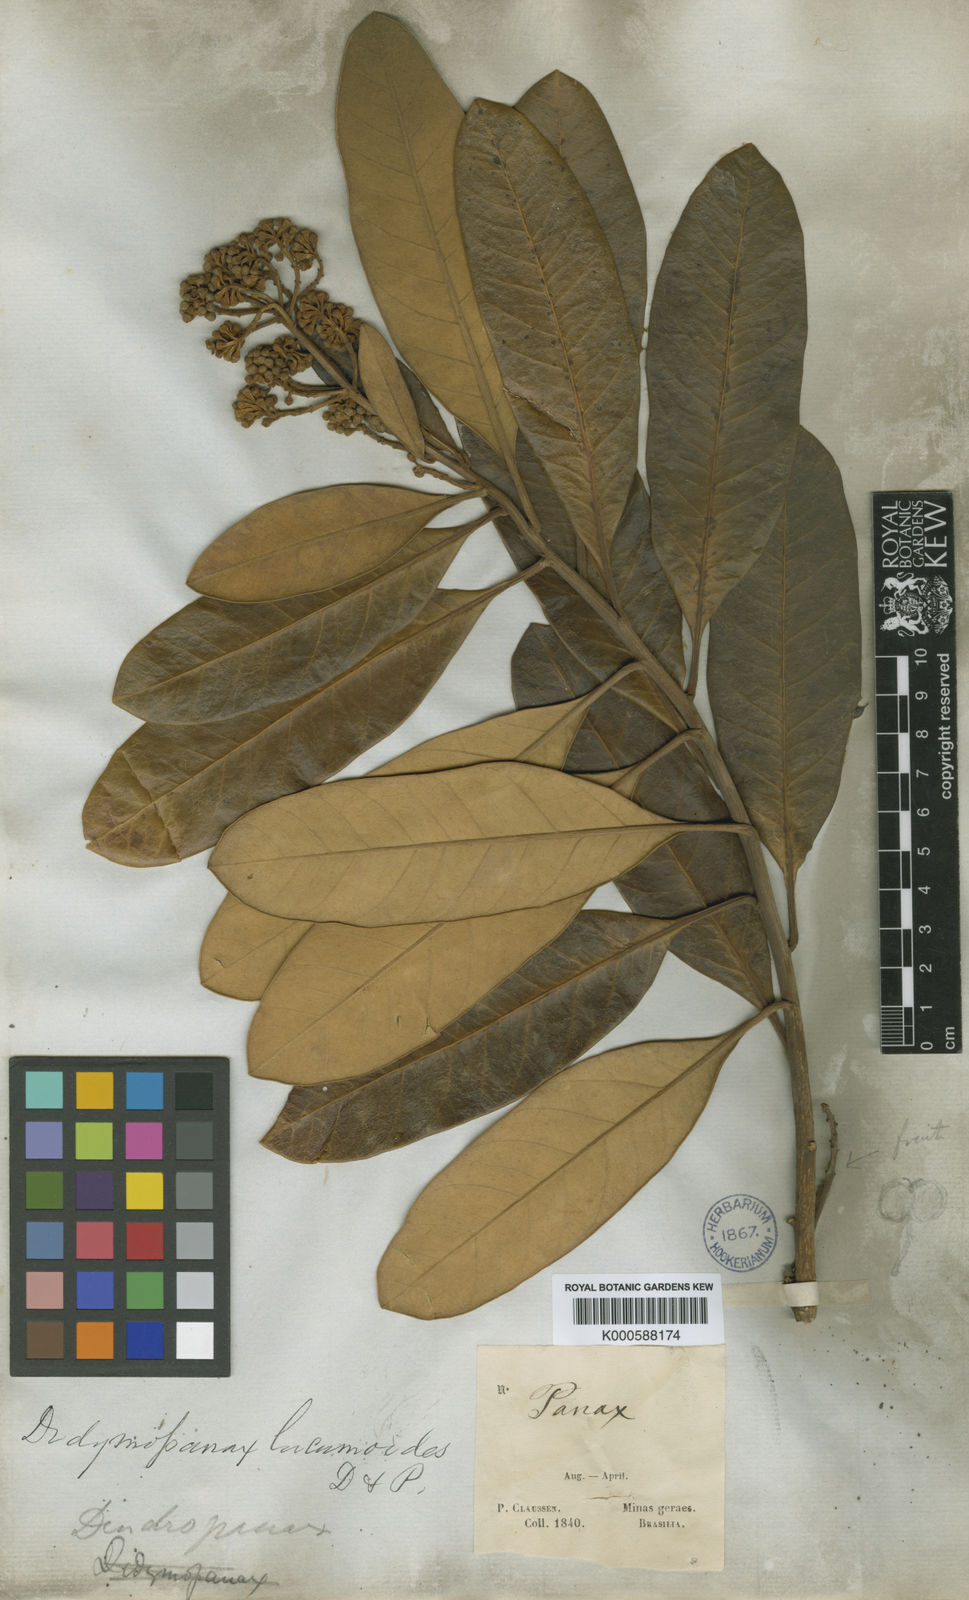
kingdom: Plantae
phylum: Tracheophyta
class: Magnoliopsida
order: Apiales
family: Araliaceae
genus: Didymopanax
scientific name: Didymopanax lucumoides
